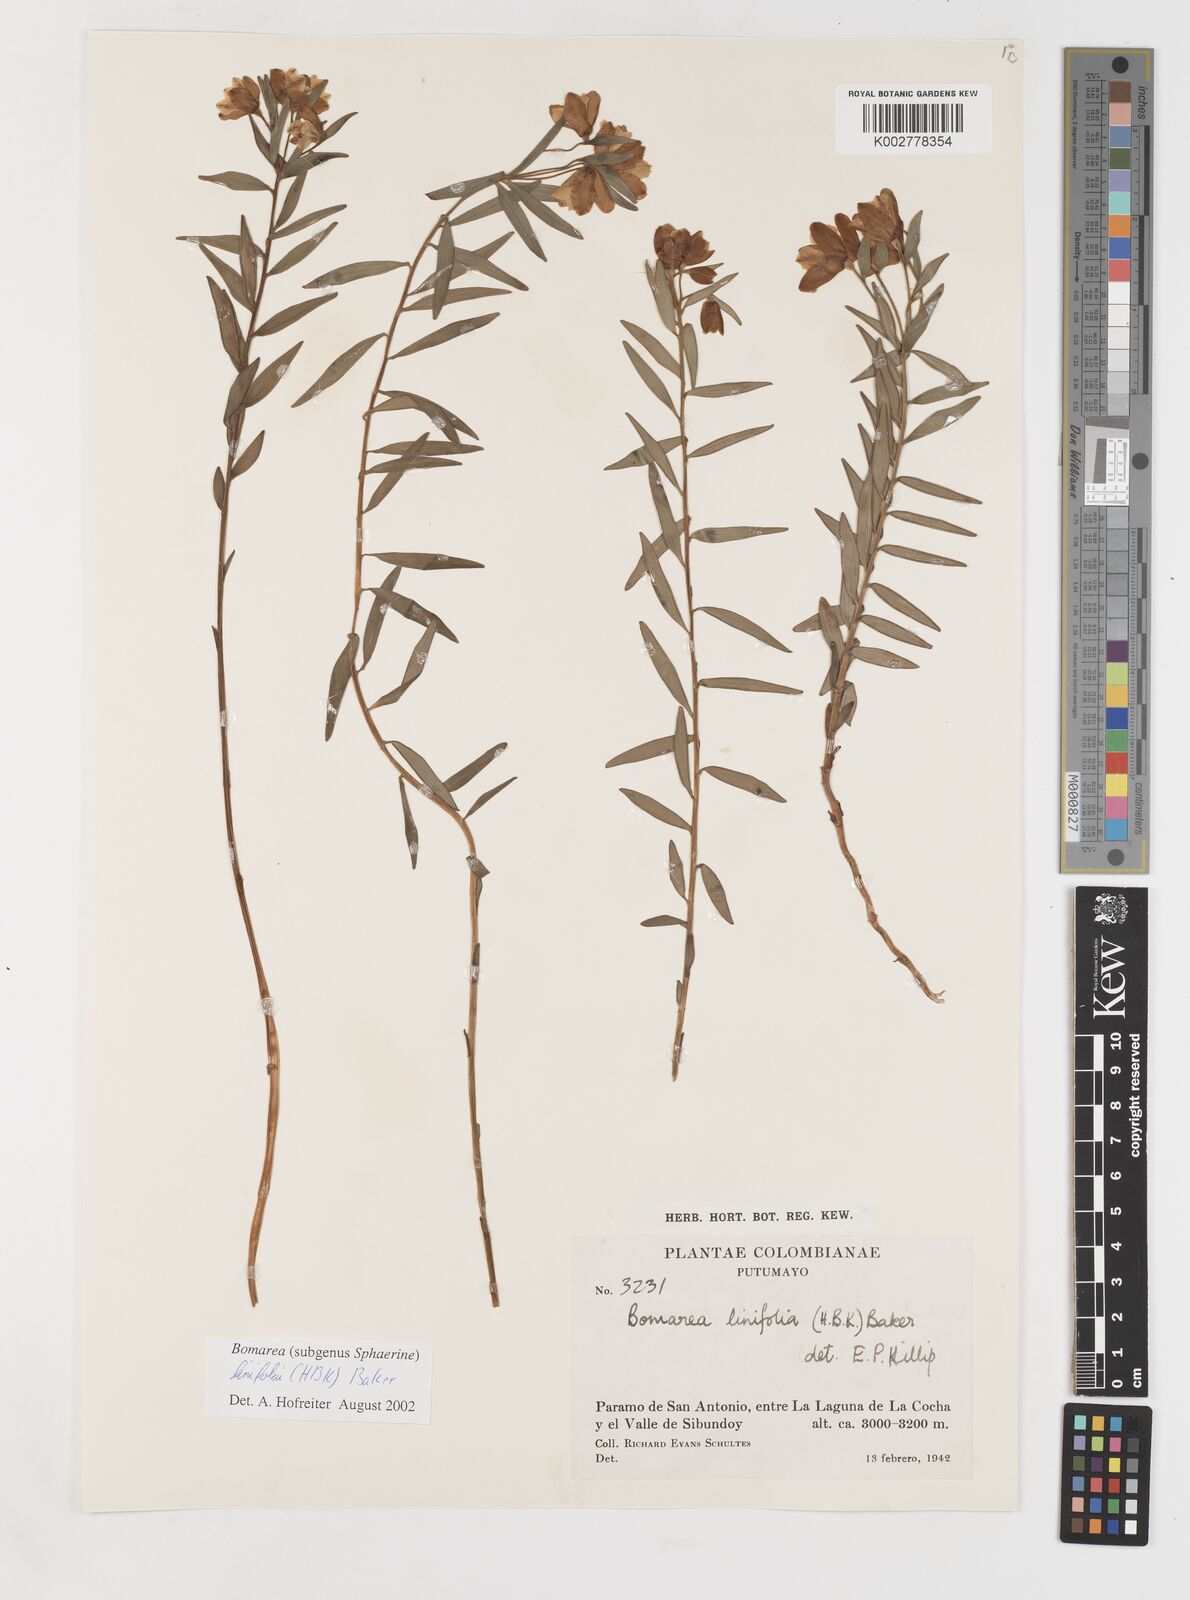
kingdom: Plantae
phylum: Tracheophyta
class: Liliopsida
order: Liliales
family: Alstroemeriaceae
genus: Bomarea
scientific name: Bomarea linifolia
